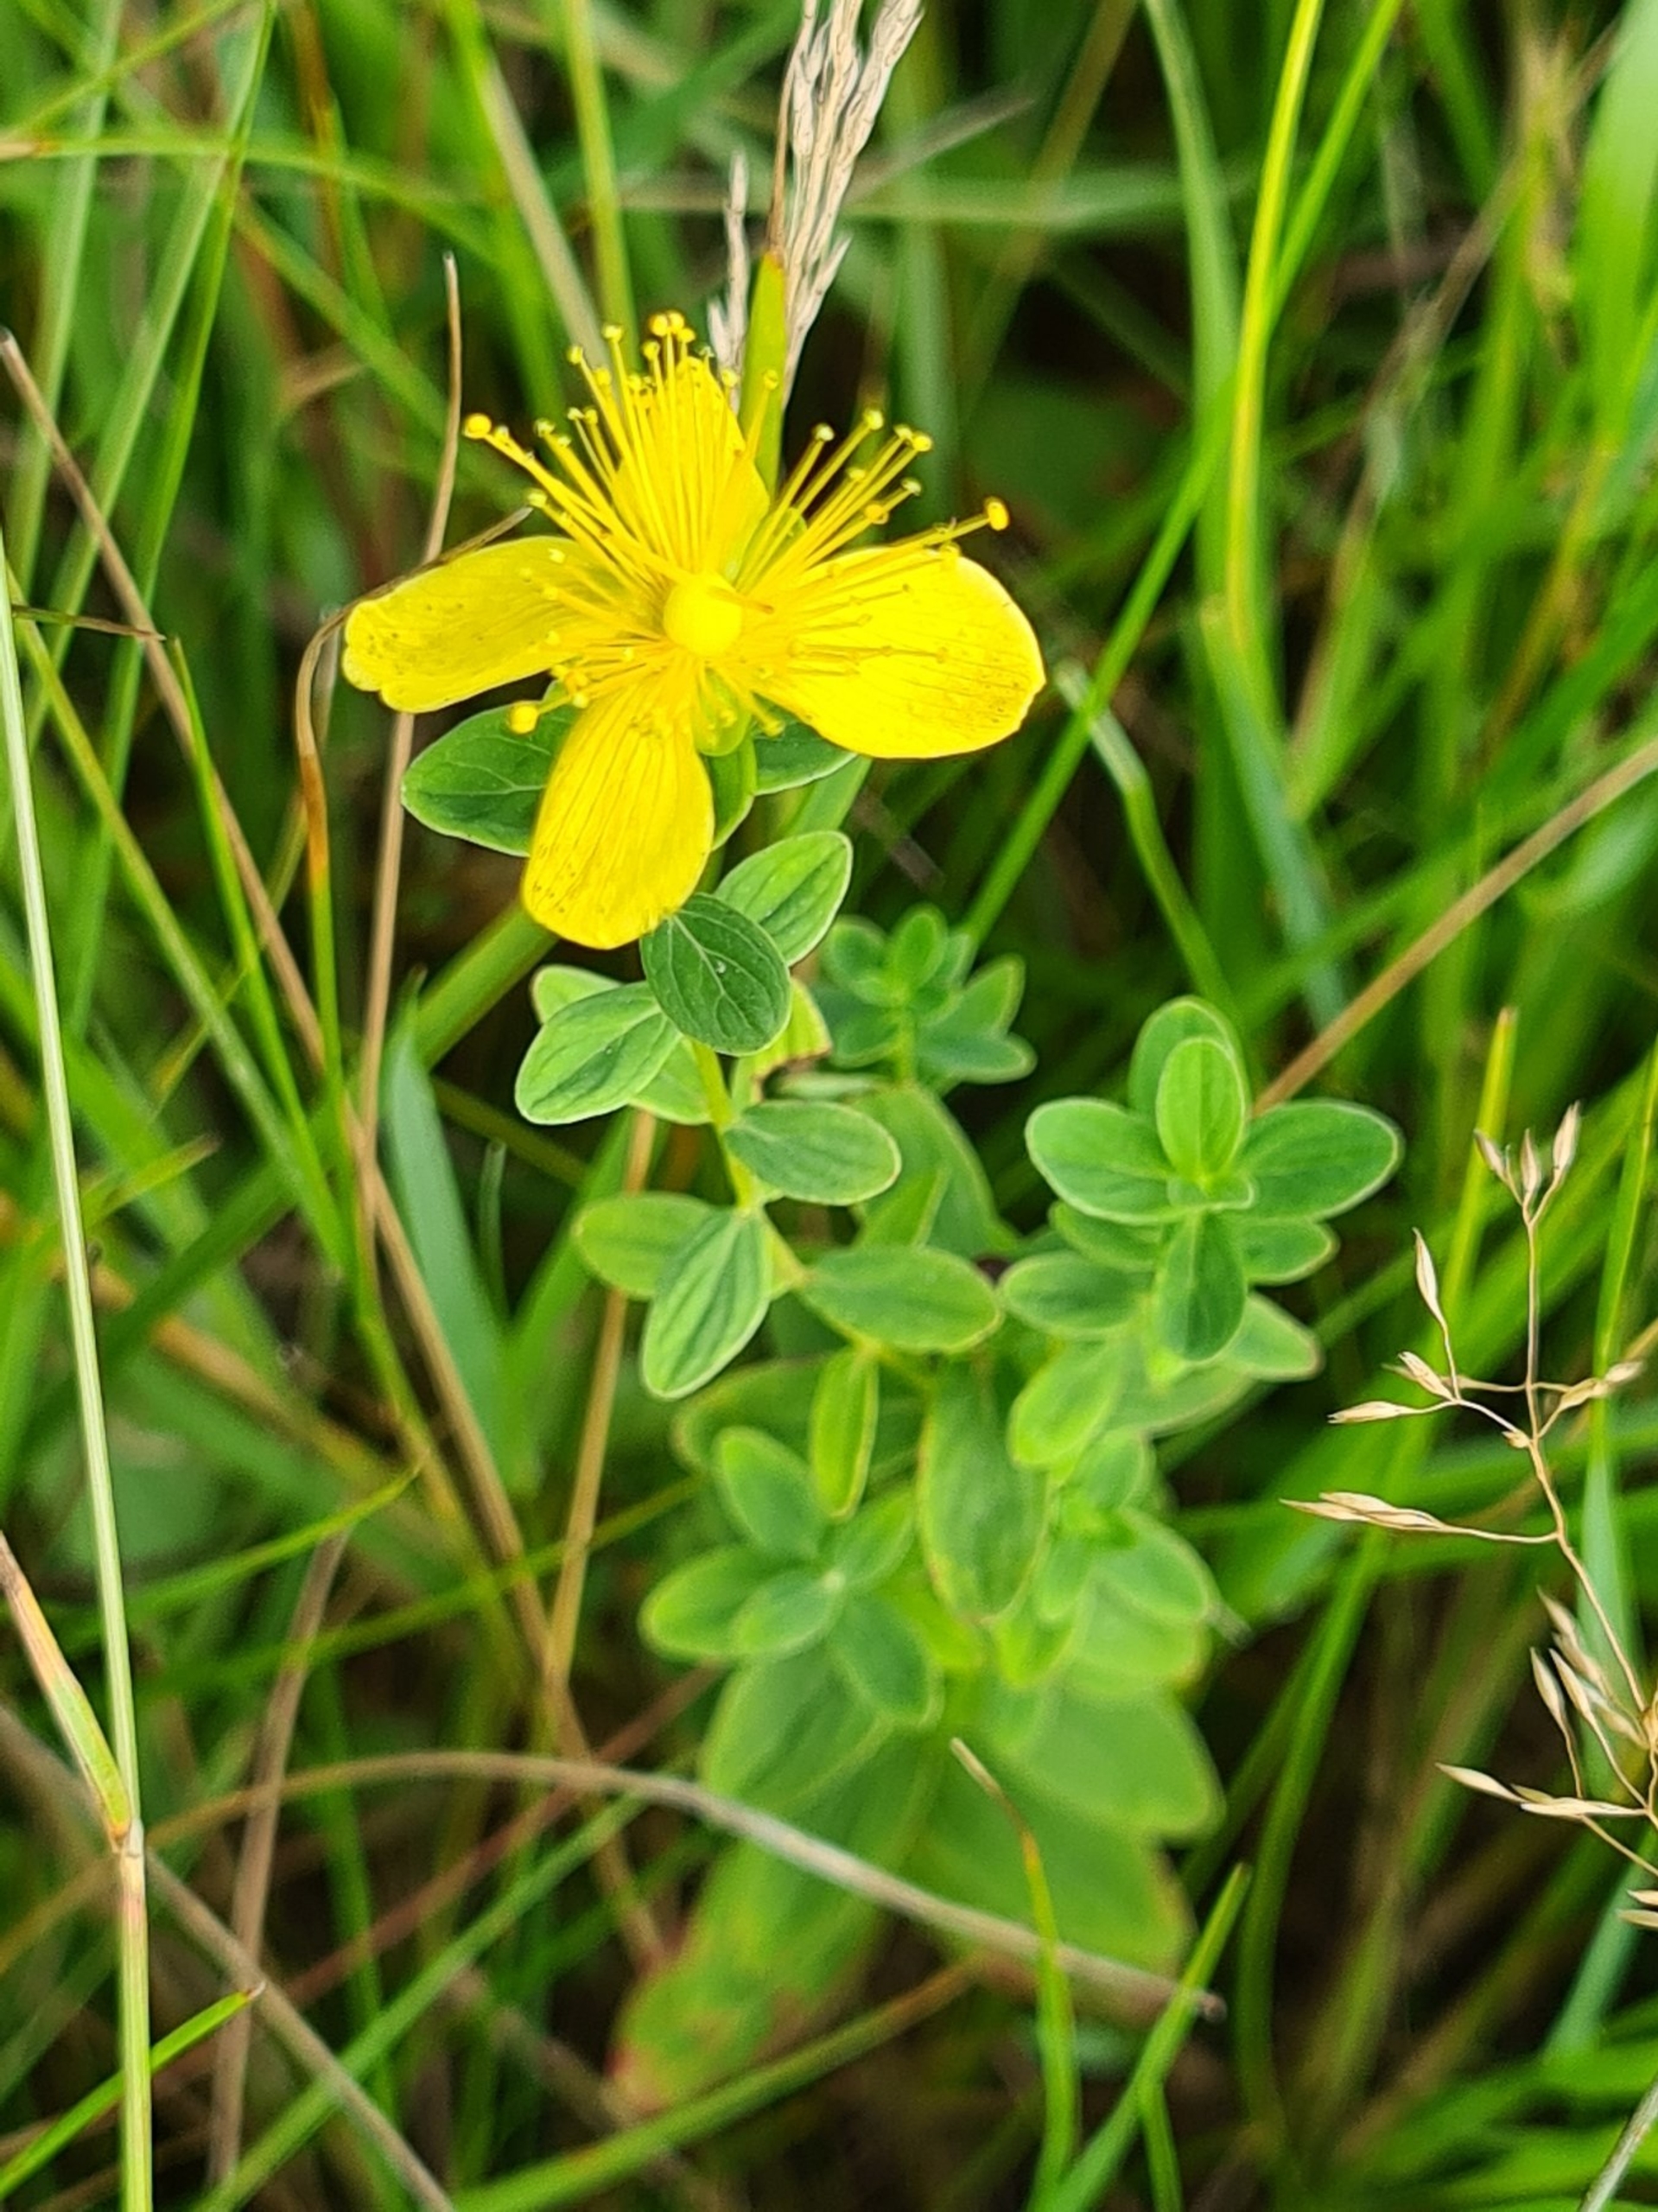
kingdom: Plantae
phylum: Tracheophyta
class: Magnoliopsida
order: Malpighiales
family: Hypericaceae
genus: Hypericum
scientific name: Hypericum maculatum
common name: Kantet perikon
